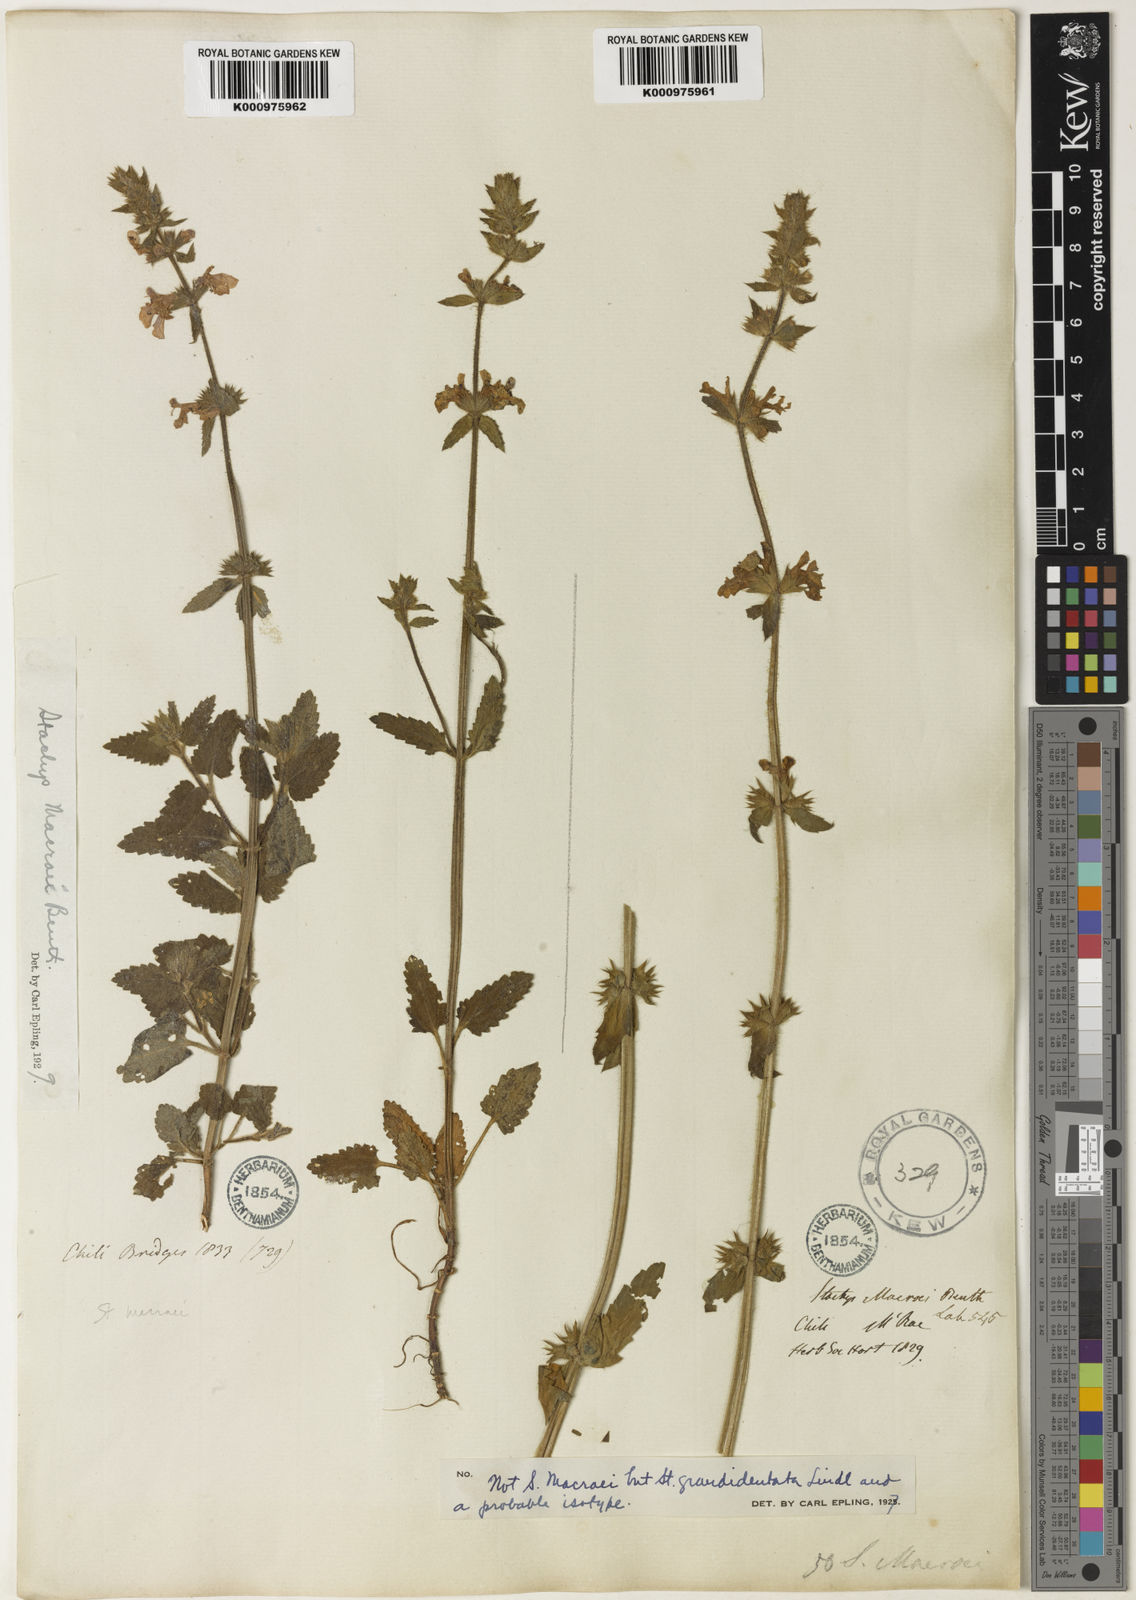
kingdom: Plantae
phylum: Tracheophyta
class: Magnoliopsida
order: Lamiales
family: Lamiaceae
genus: Stachys
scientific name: Stachys grandidentata
